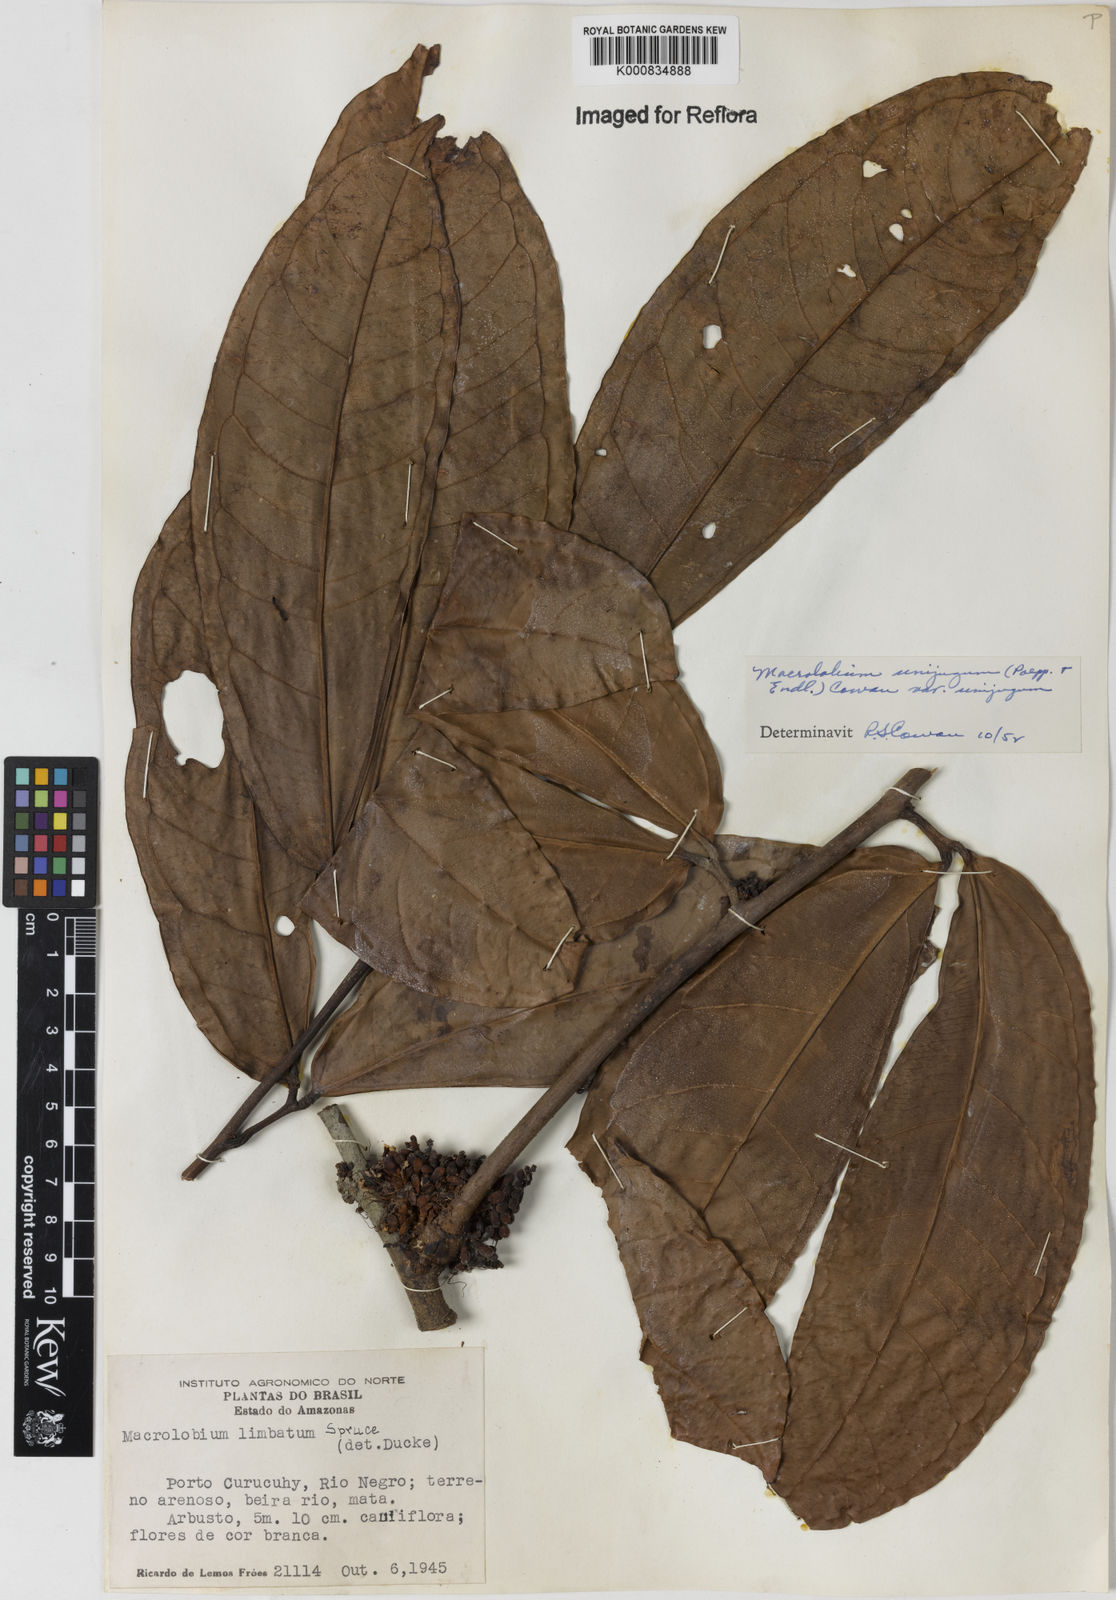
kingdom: Plantae
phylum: Tracheophyta
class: Magnoliopsida
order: Fabales
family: Fabaceae
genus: Macrolobium
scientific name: Macrolobium limbatum
